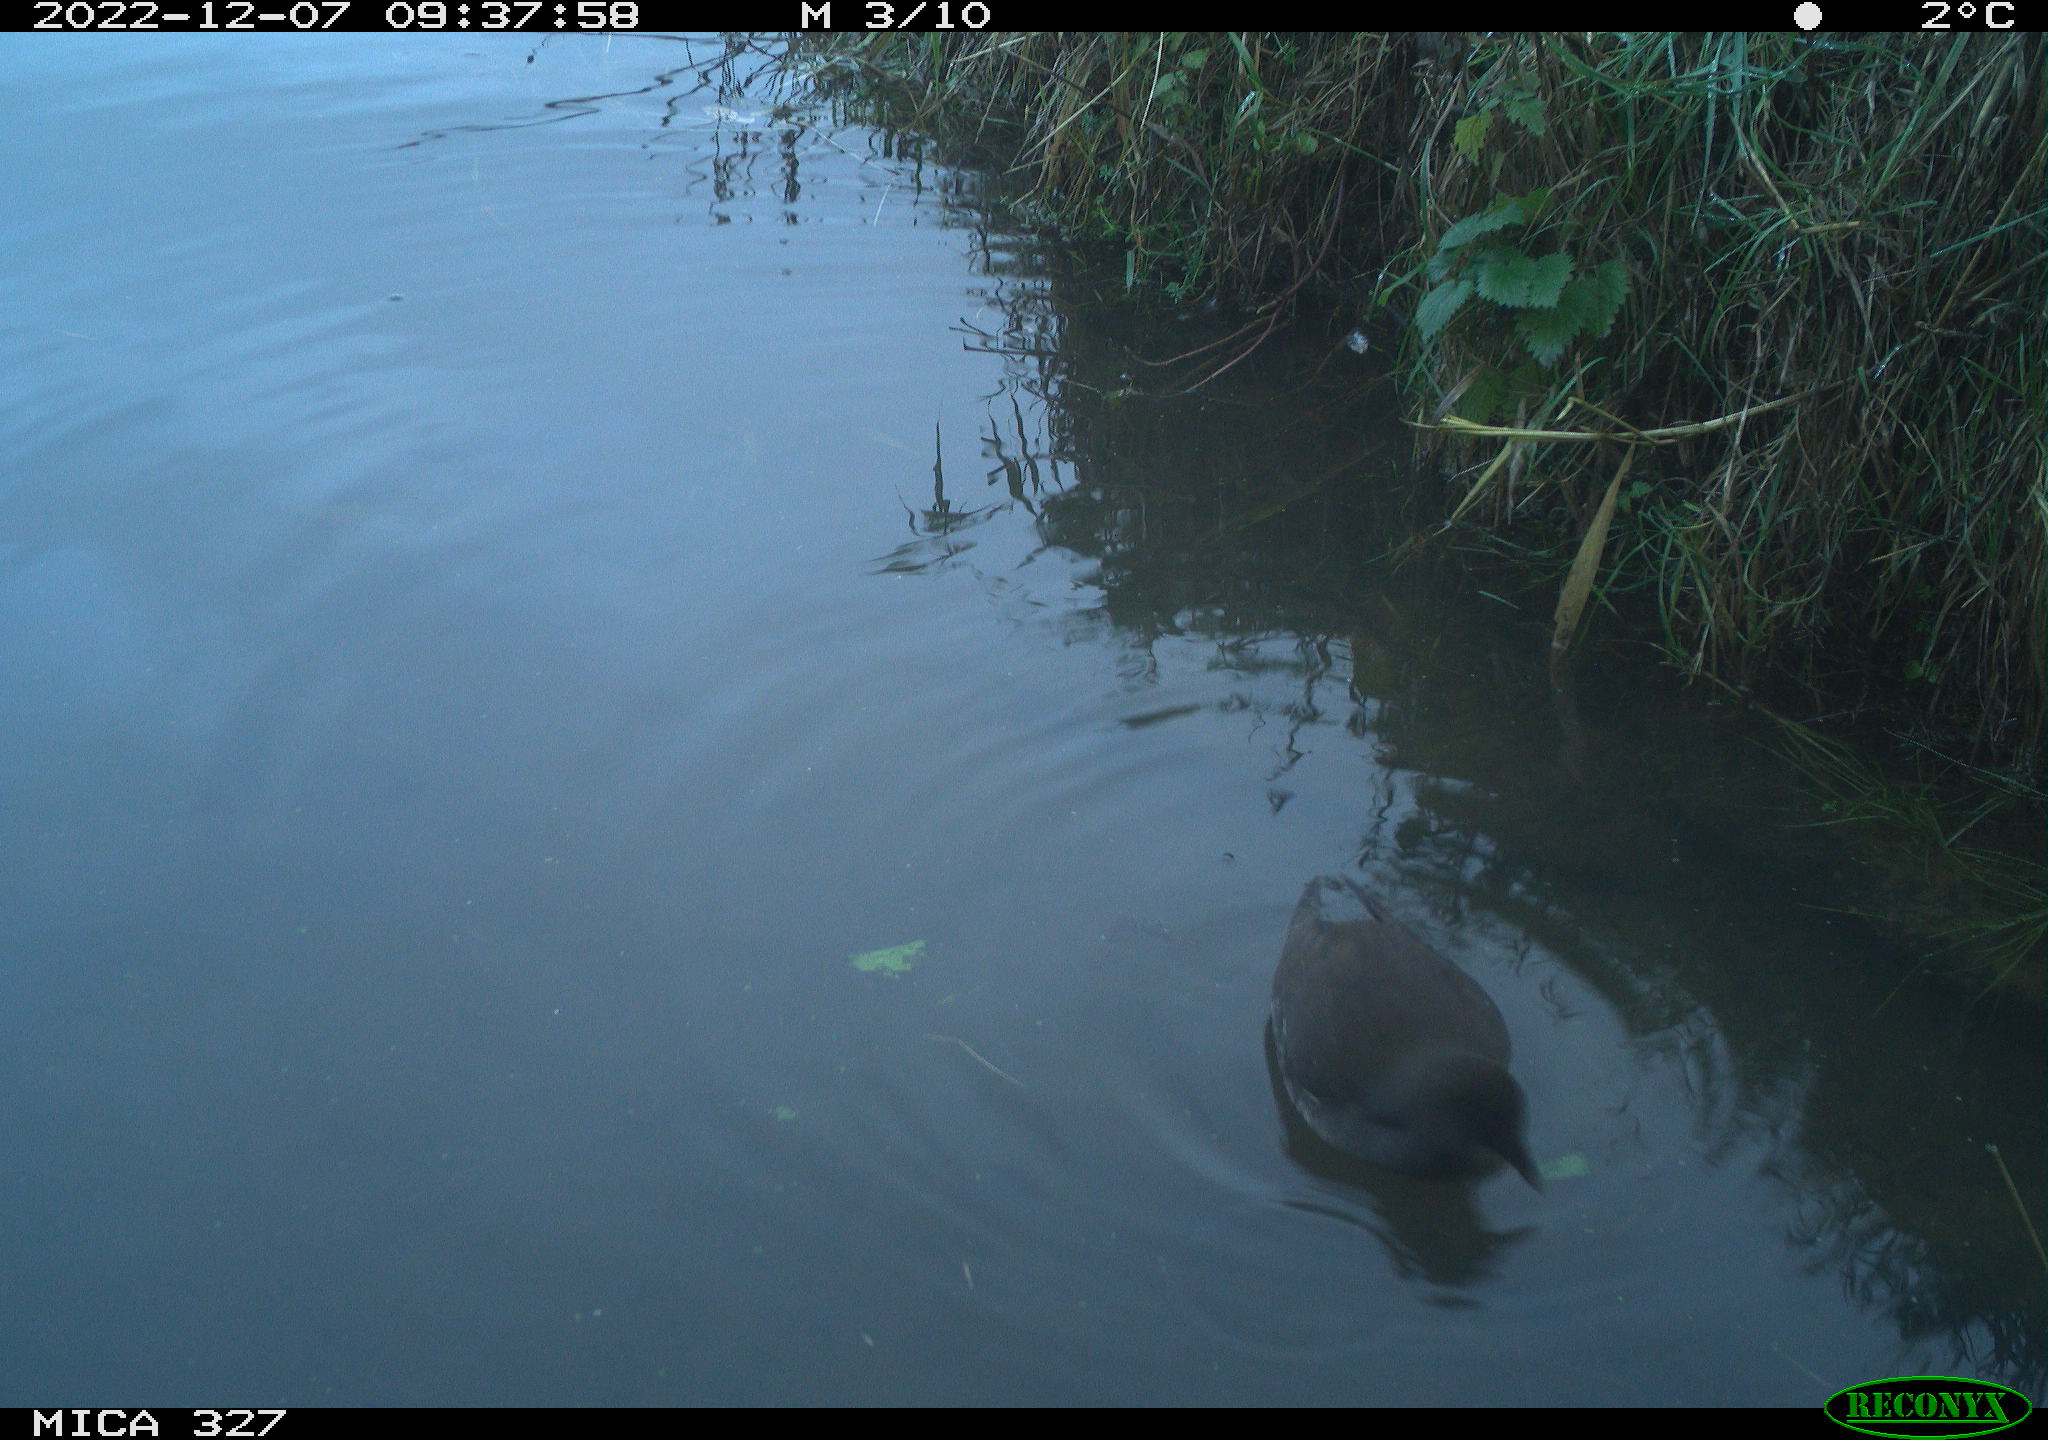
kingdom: Animalia
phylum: Chordata
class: Aves
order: Gruiformes
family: Rallidae
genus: Gallinula
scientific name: Gallinula chloropus
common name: Common moorhen
